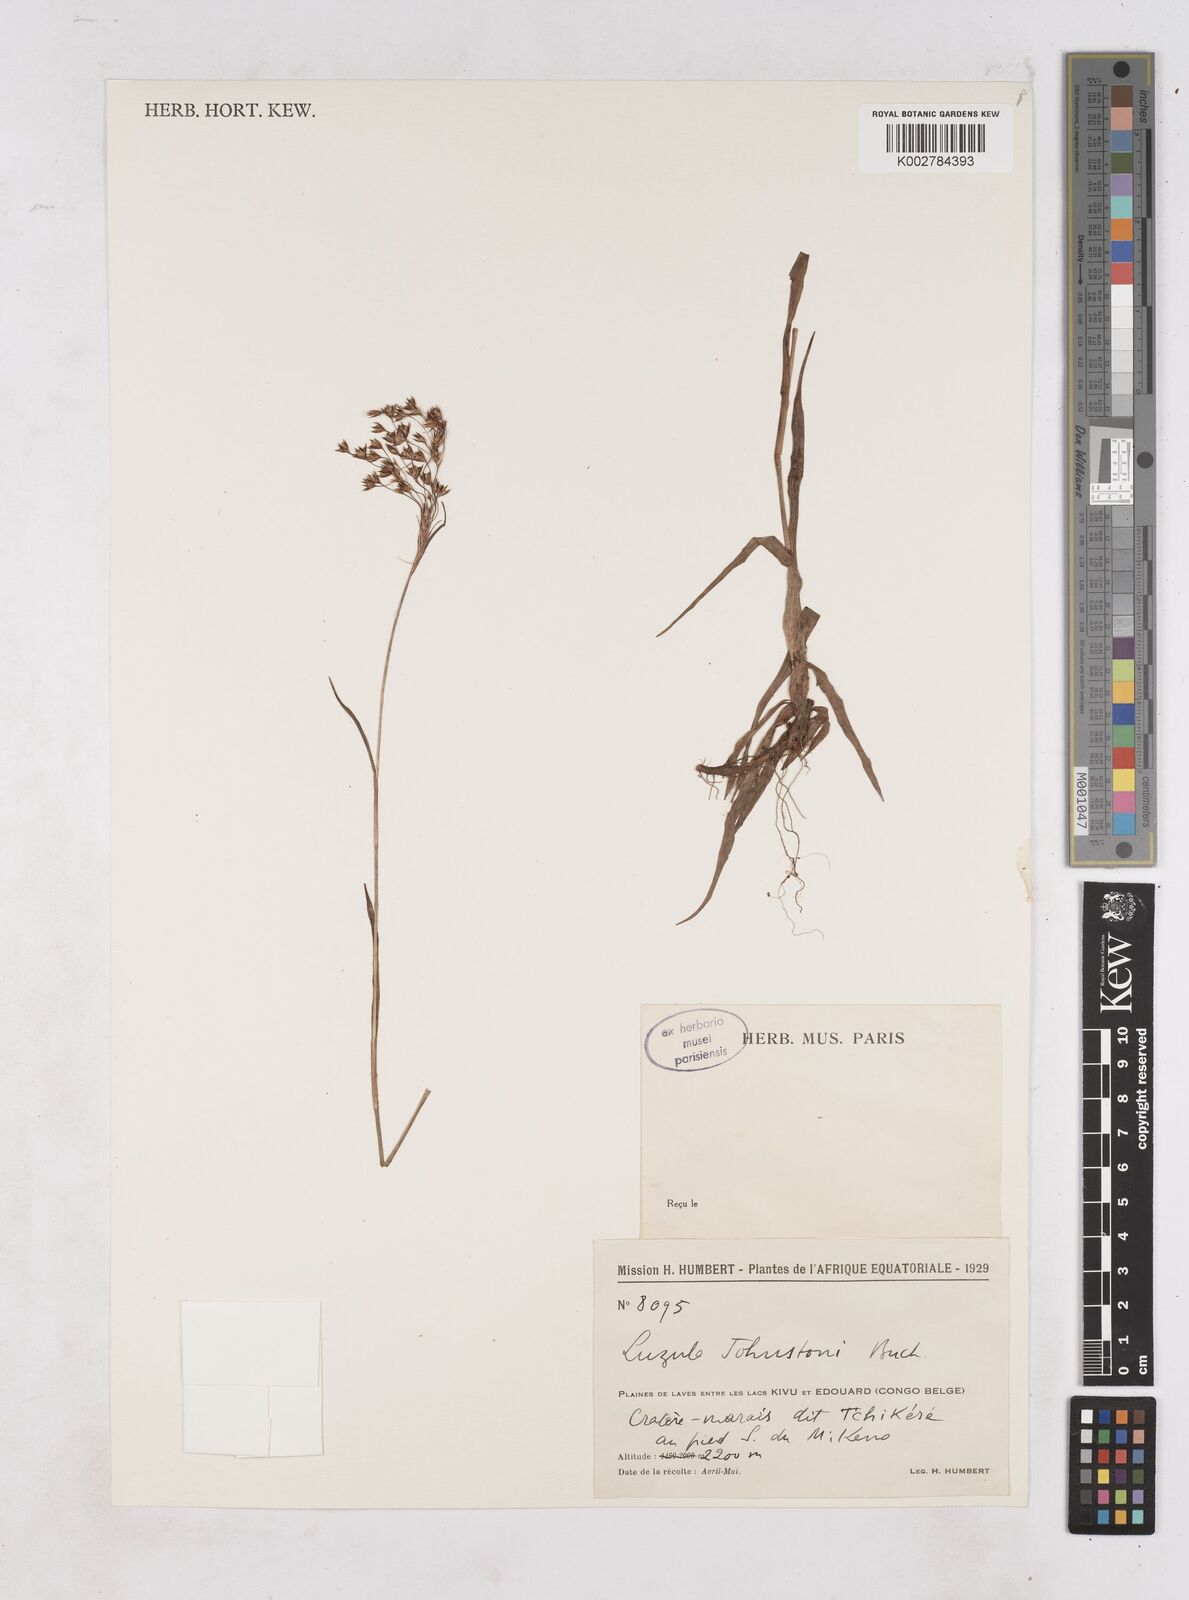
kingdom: Plantae
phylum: Tracheophyta
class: Liliopsida
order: Poales
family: Juncaceae
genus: Luzula
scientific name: Luzula johnstonii
